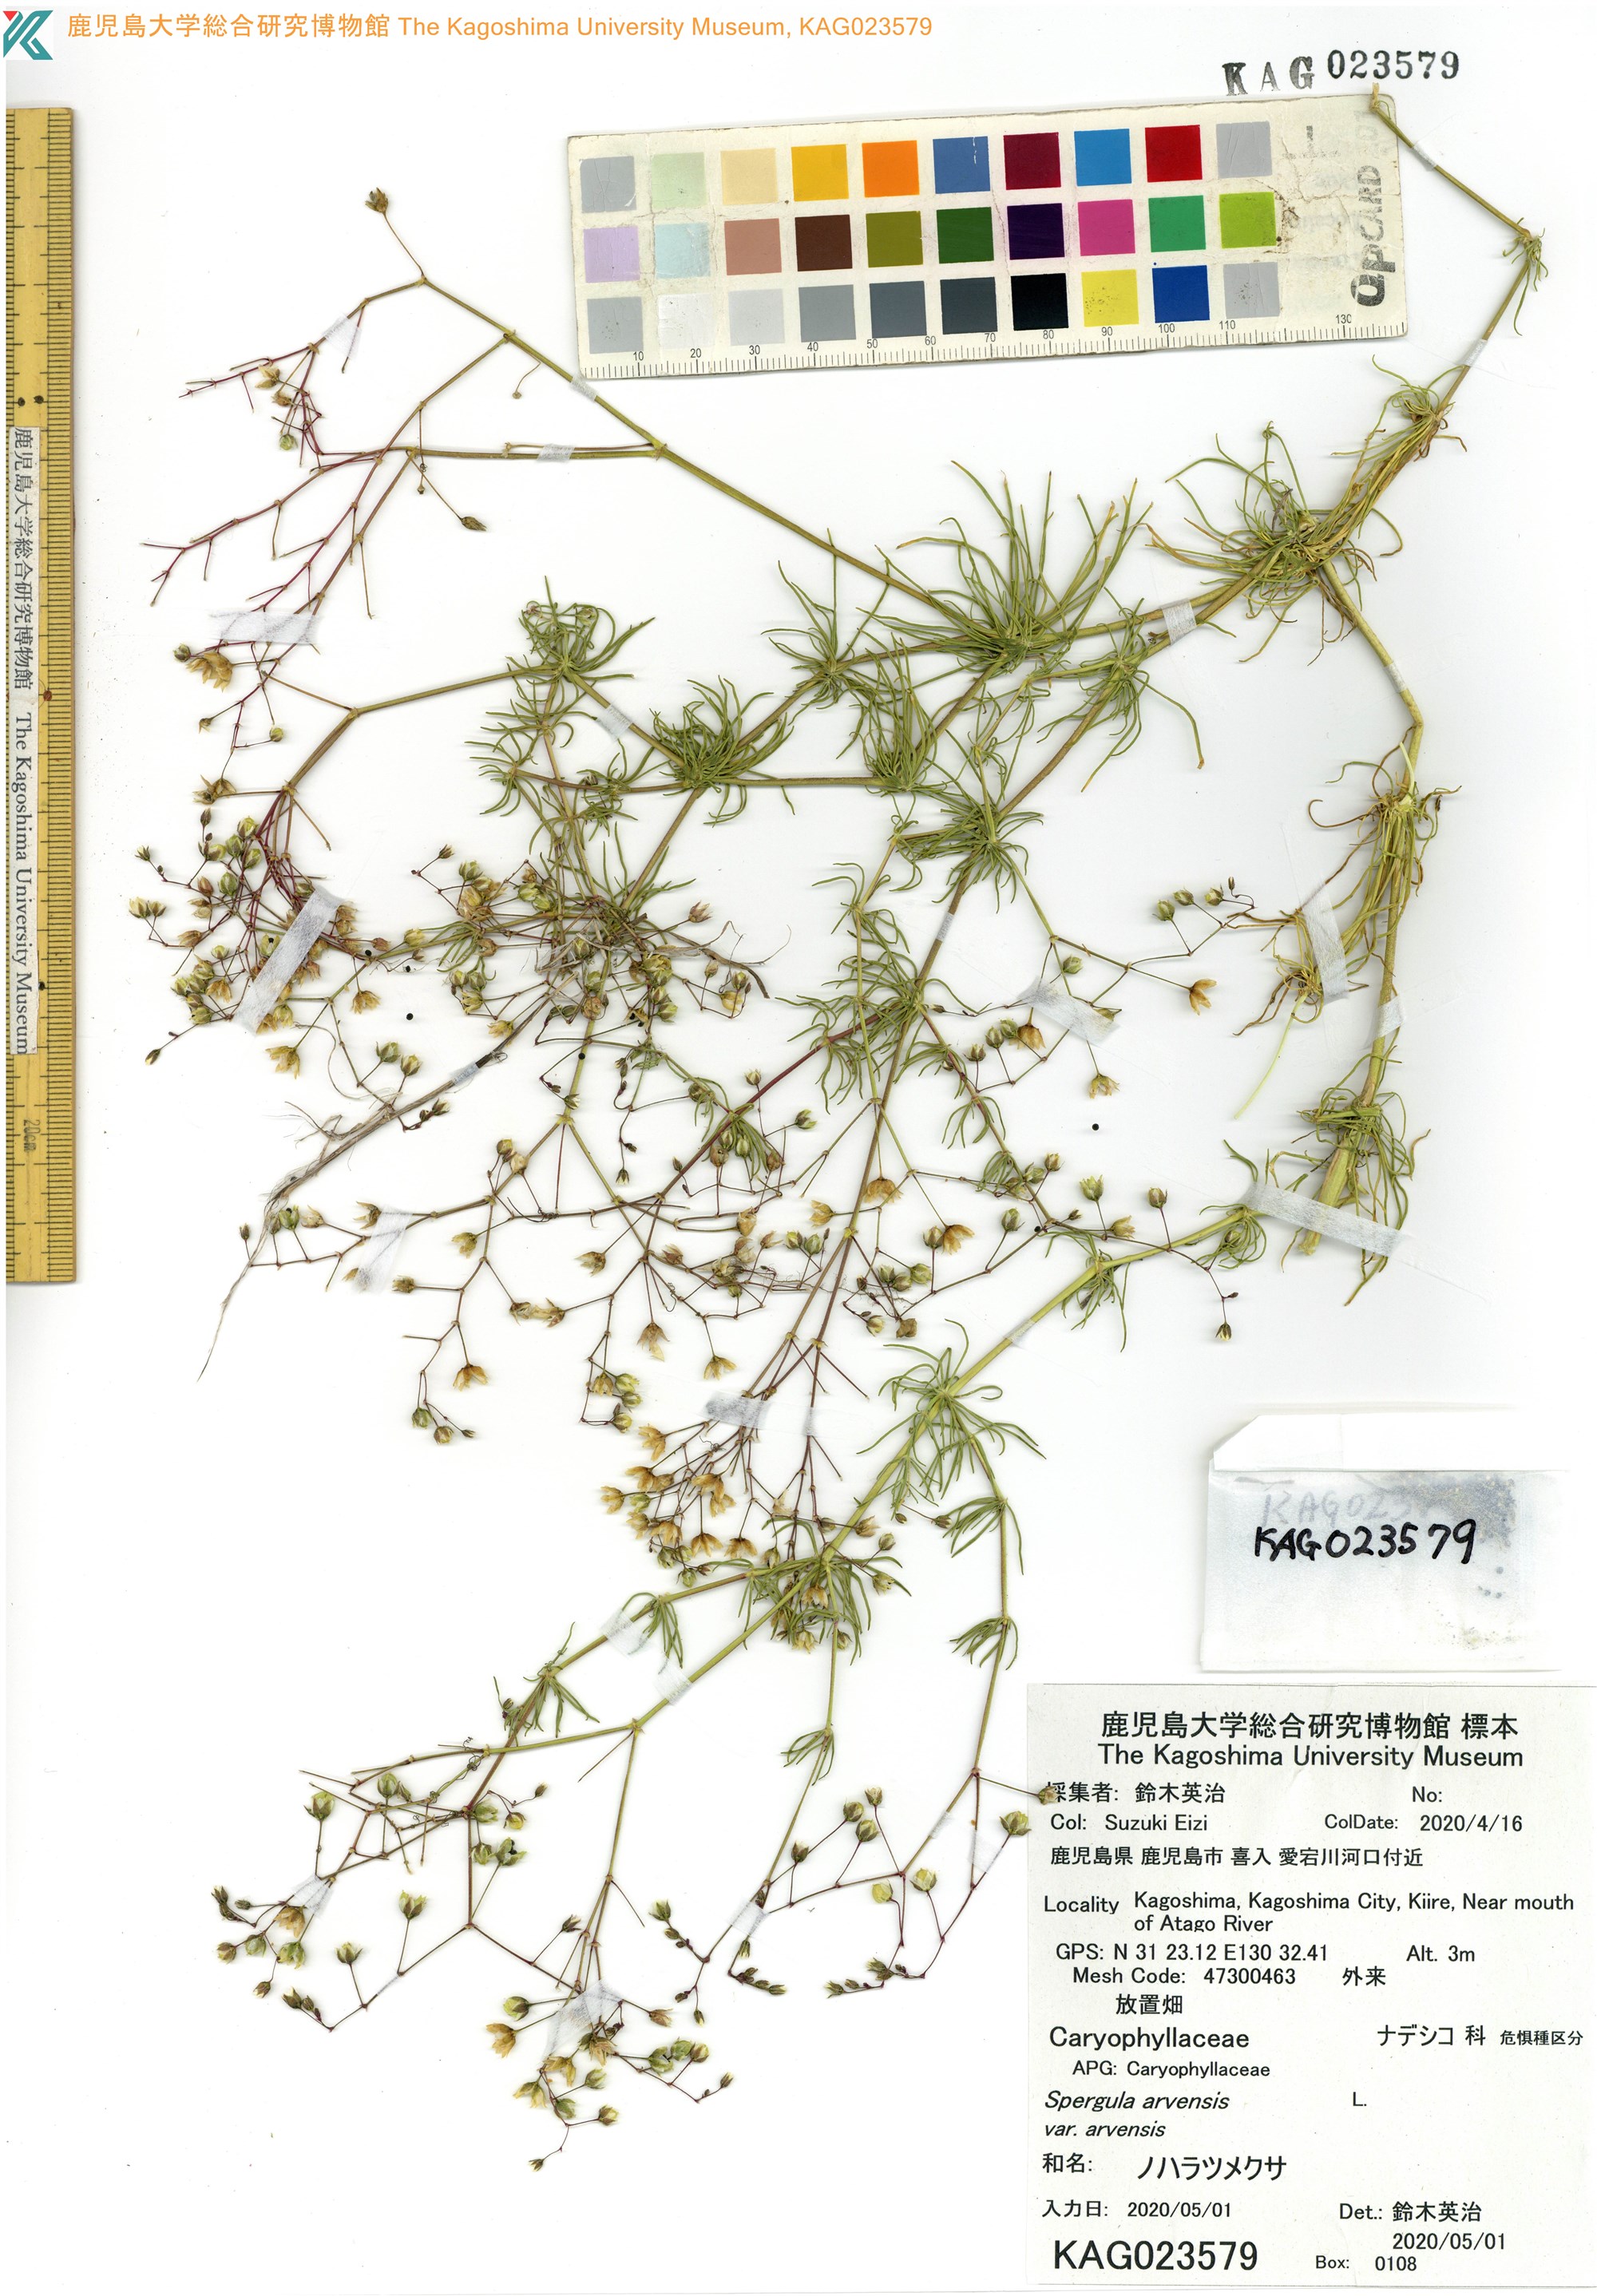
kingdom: Plantae
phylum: Tracheophyta
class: Magnoliopsida
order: Caryophyllales
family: Caryophyllaceae
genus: Spergula
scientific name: Spergula arvensis
